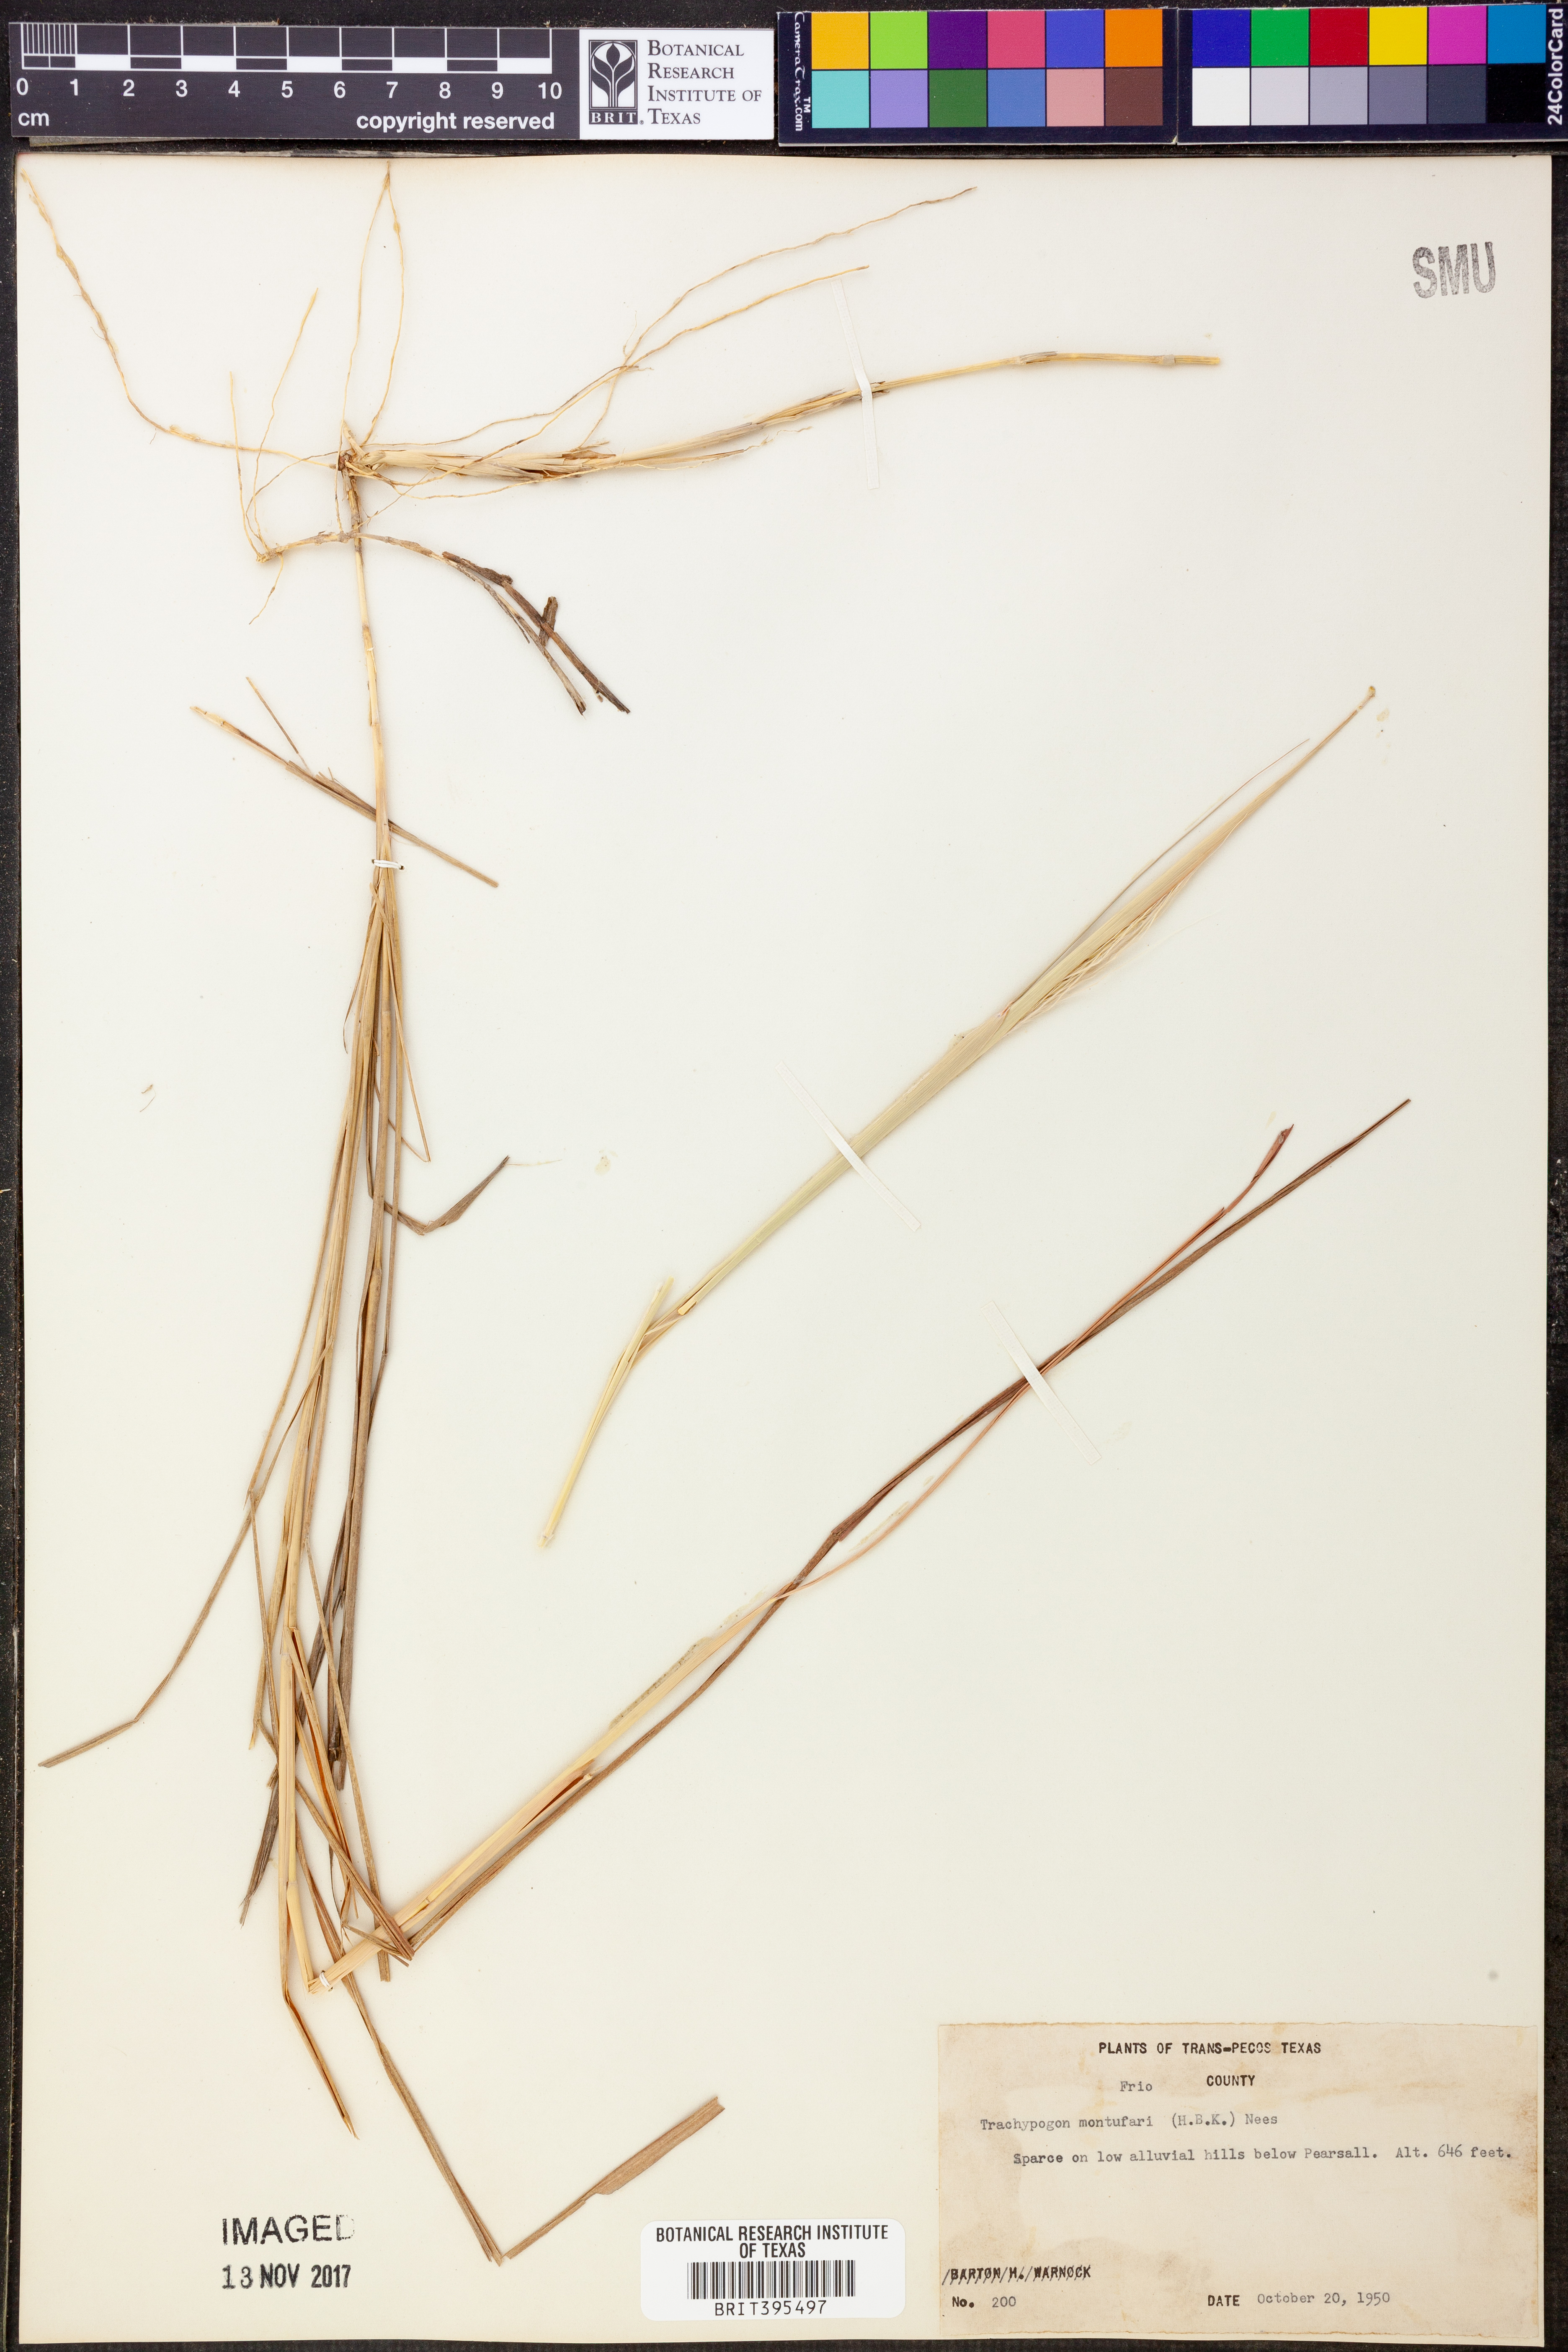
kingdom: Plantae
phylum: Tracheophyta
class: Liliopsida
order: Poales
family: Poaceae
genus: Trachypogon
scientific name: Trachypogon spicatus
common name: Crinkle-awn
